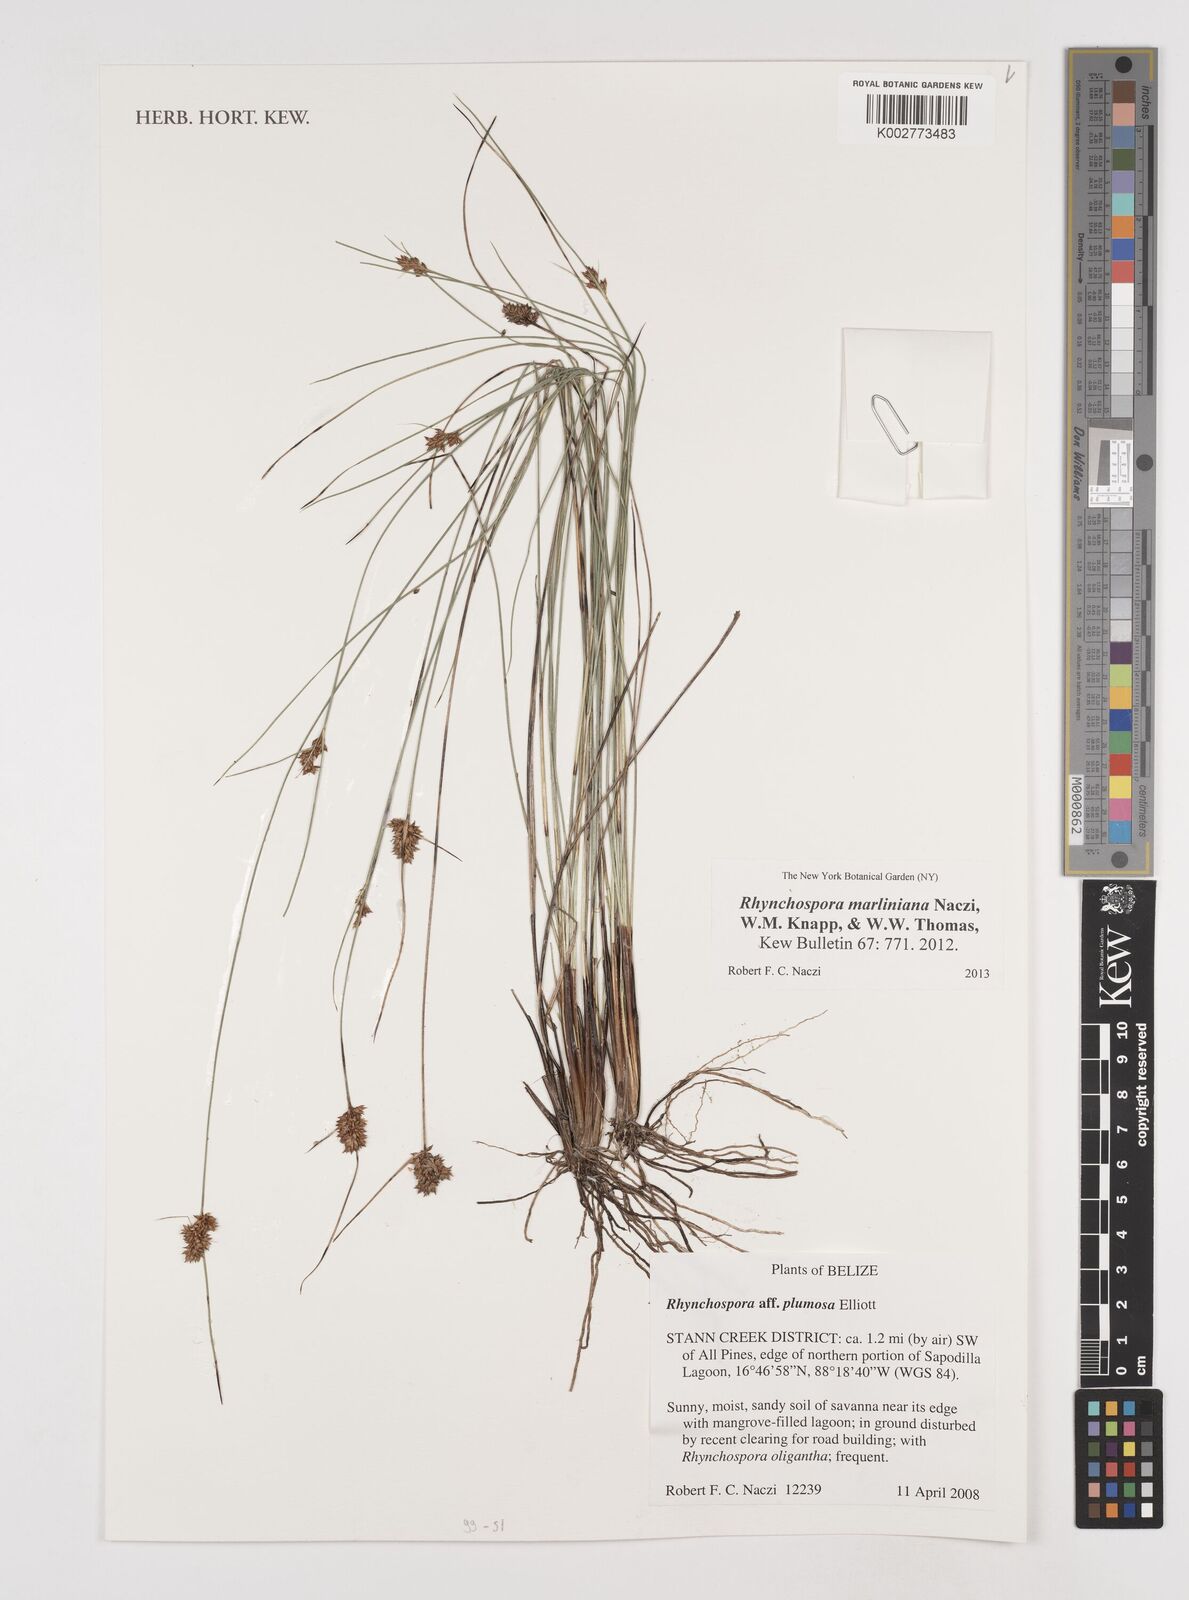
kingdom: Plantae
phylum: Tracheophyta
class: Liliopsida
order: Poales
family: Cyperaceae
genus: Rhynchospora
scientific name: Rhynchospora tenuiflora
